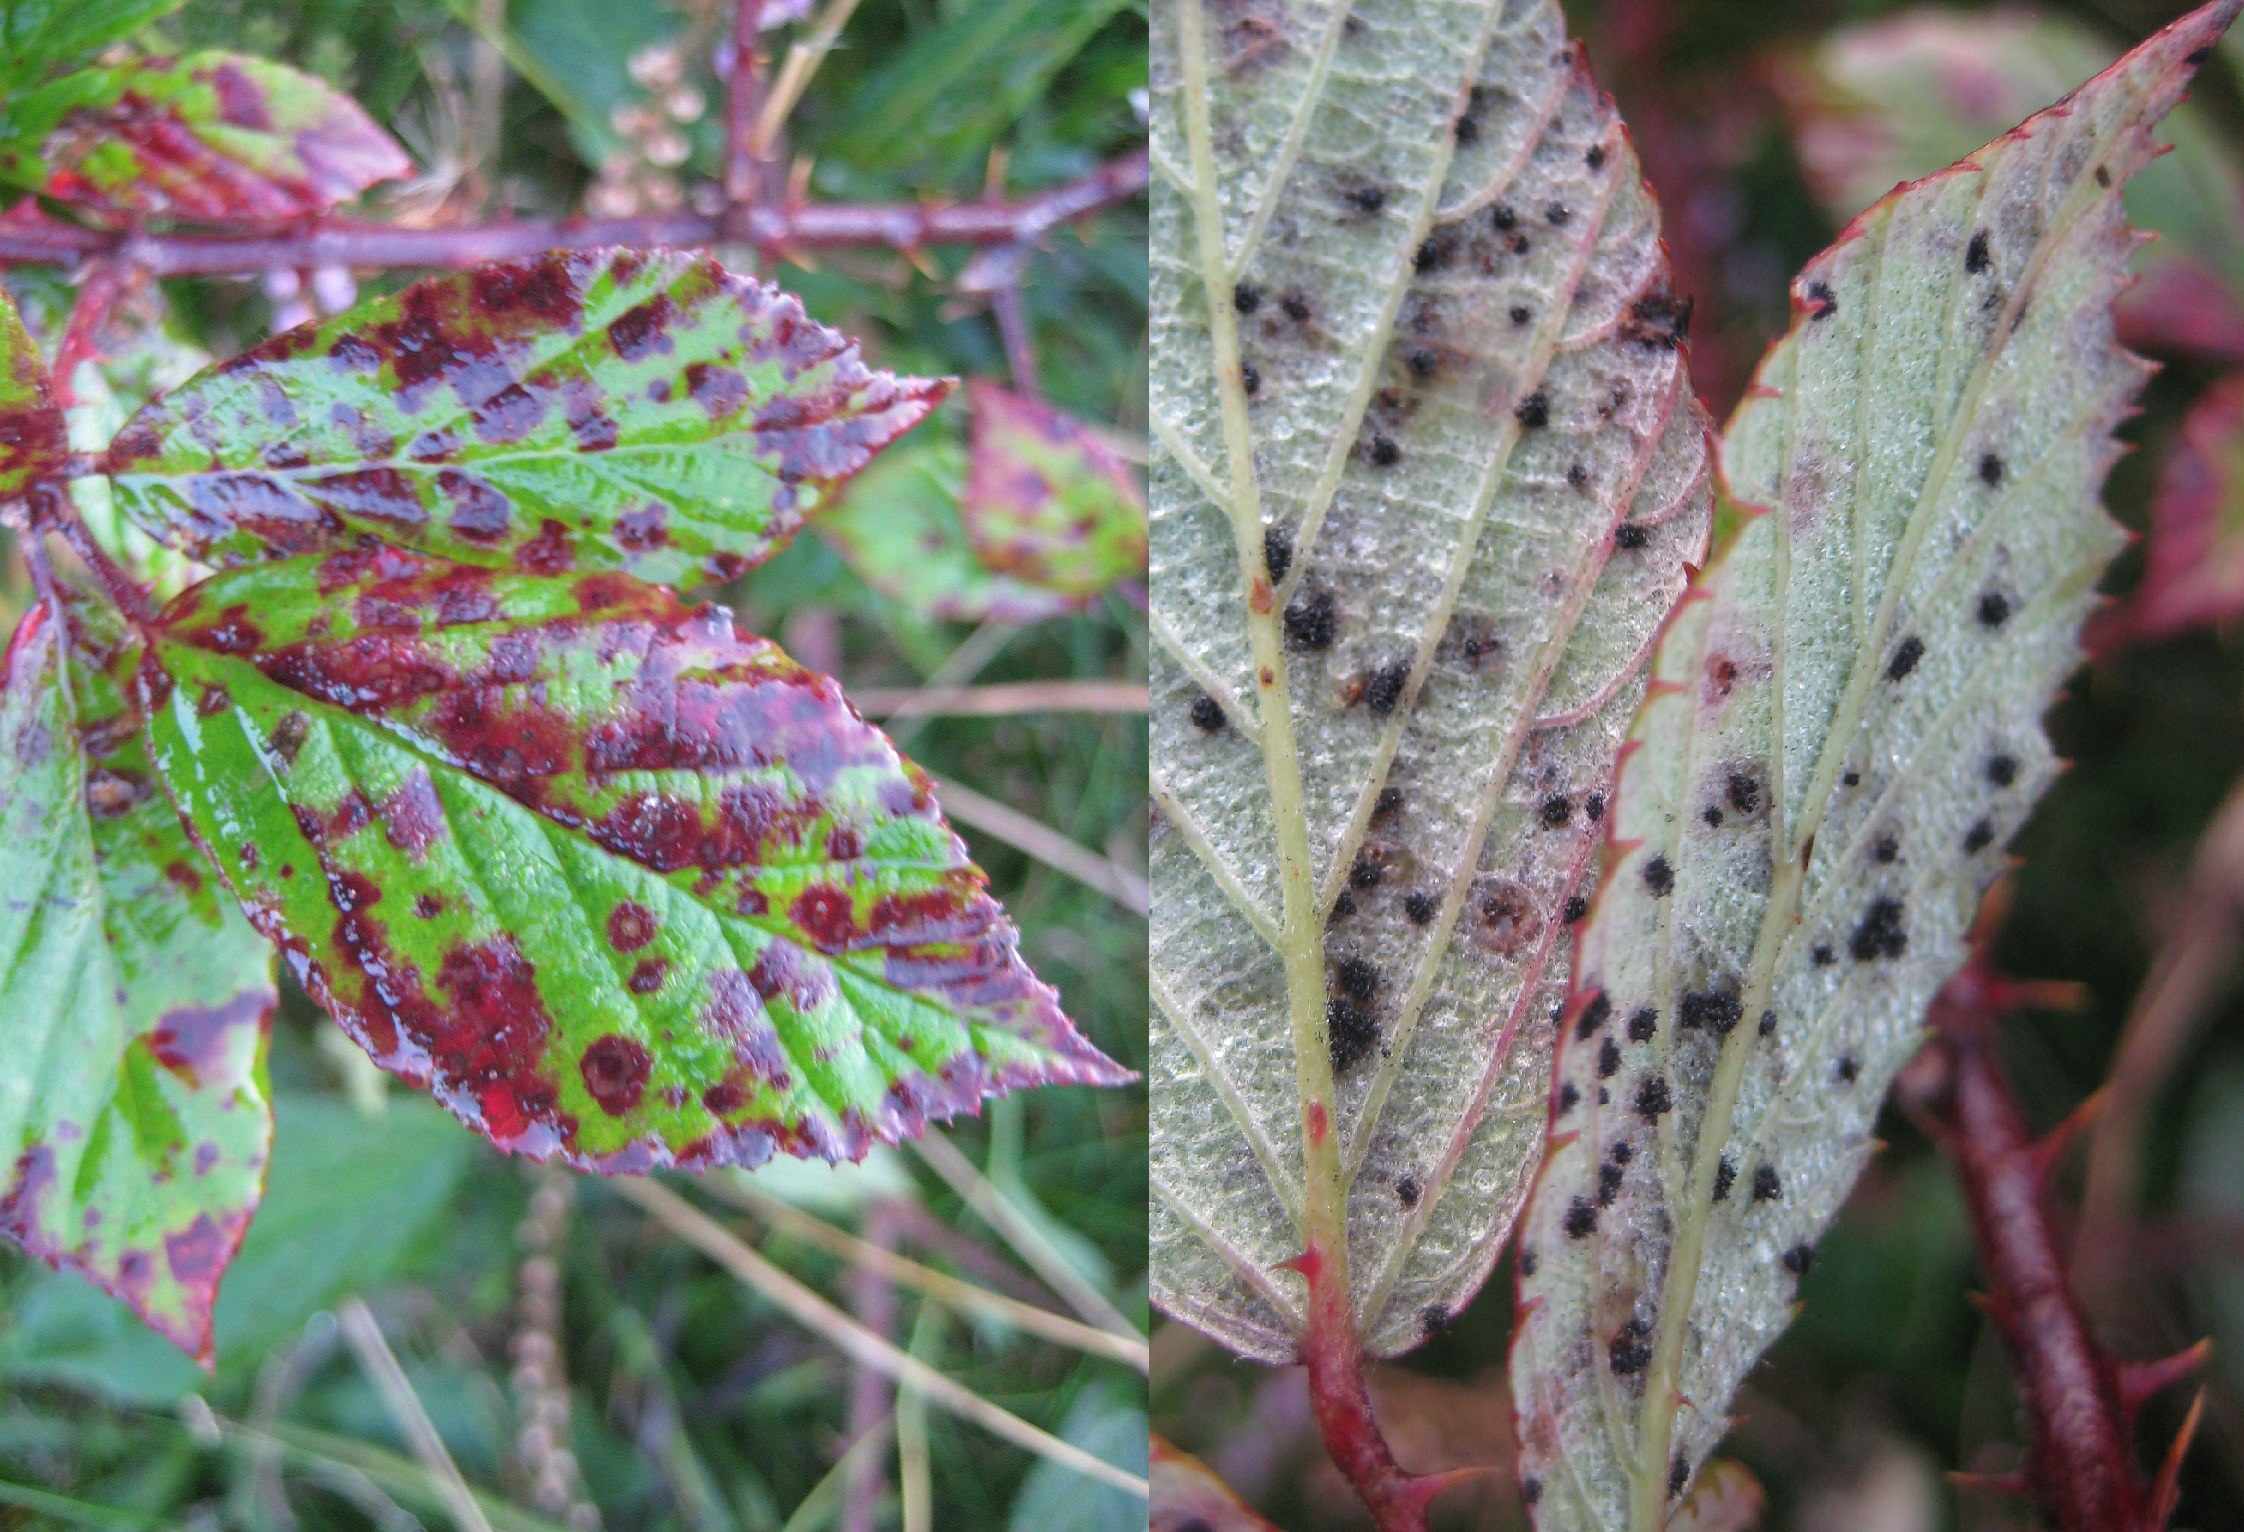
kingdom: Fungi
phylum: Basidiomycota
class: Pucciniomycetes
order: Pucciniales
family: Phragmidiaceae
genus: Phragmidium
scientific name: Phragmidium violaceum
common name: violet flercellerust
